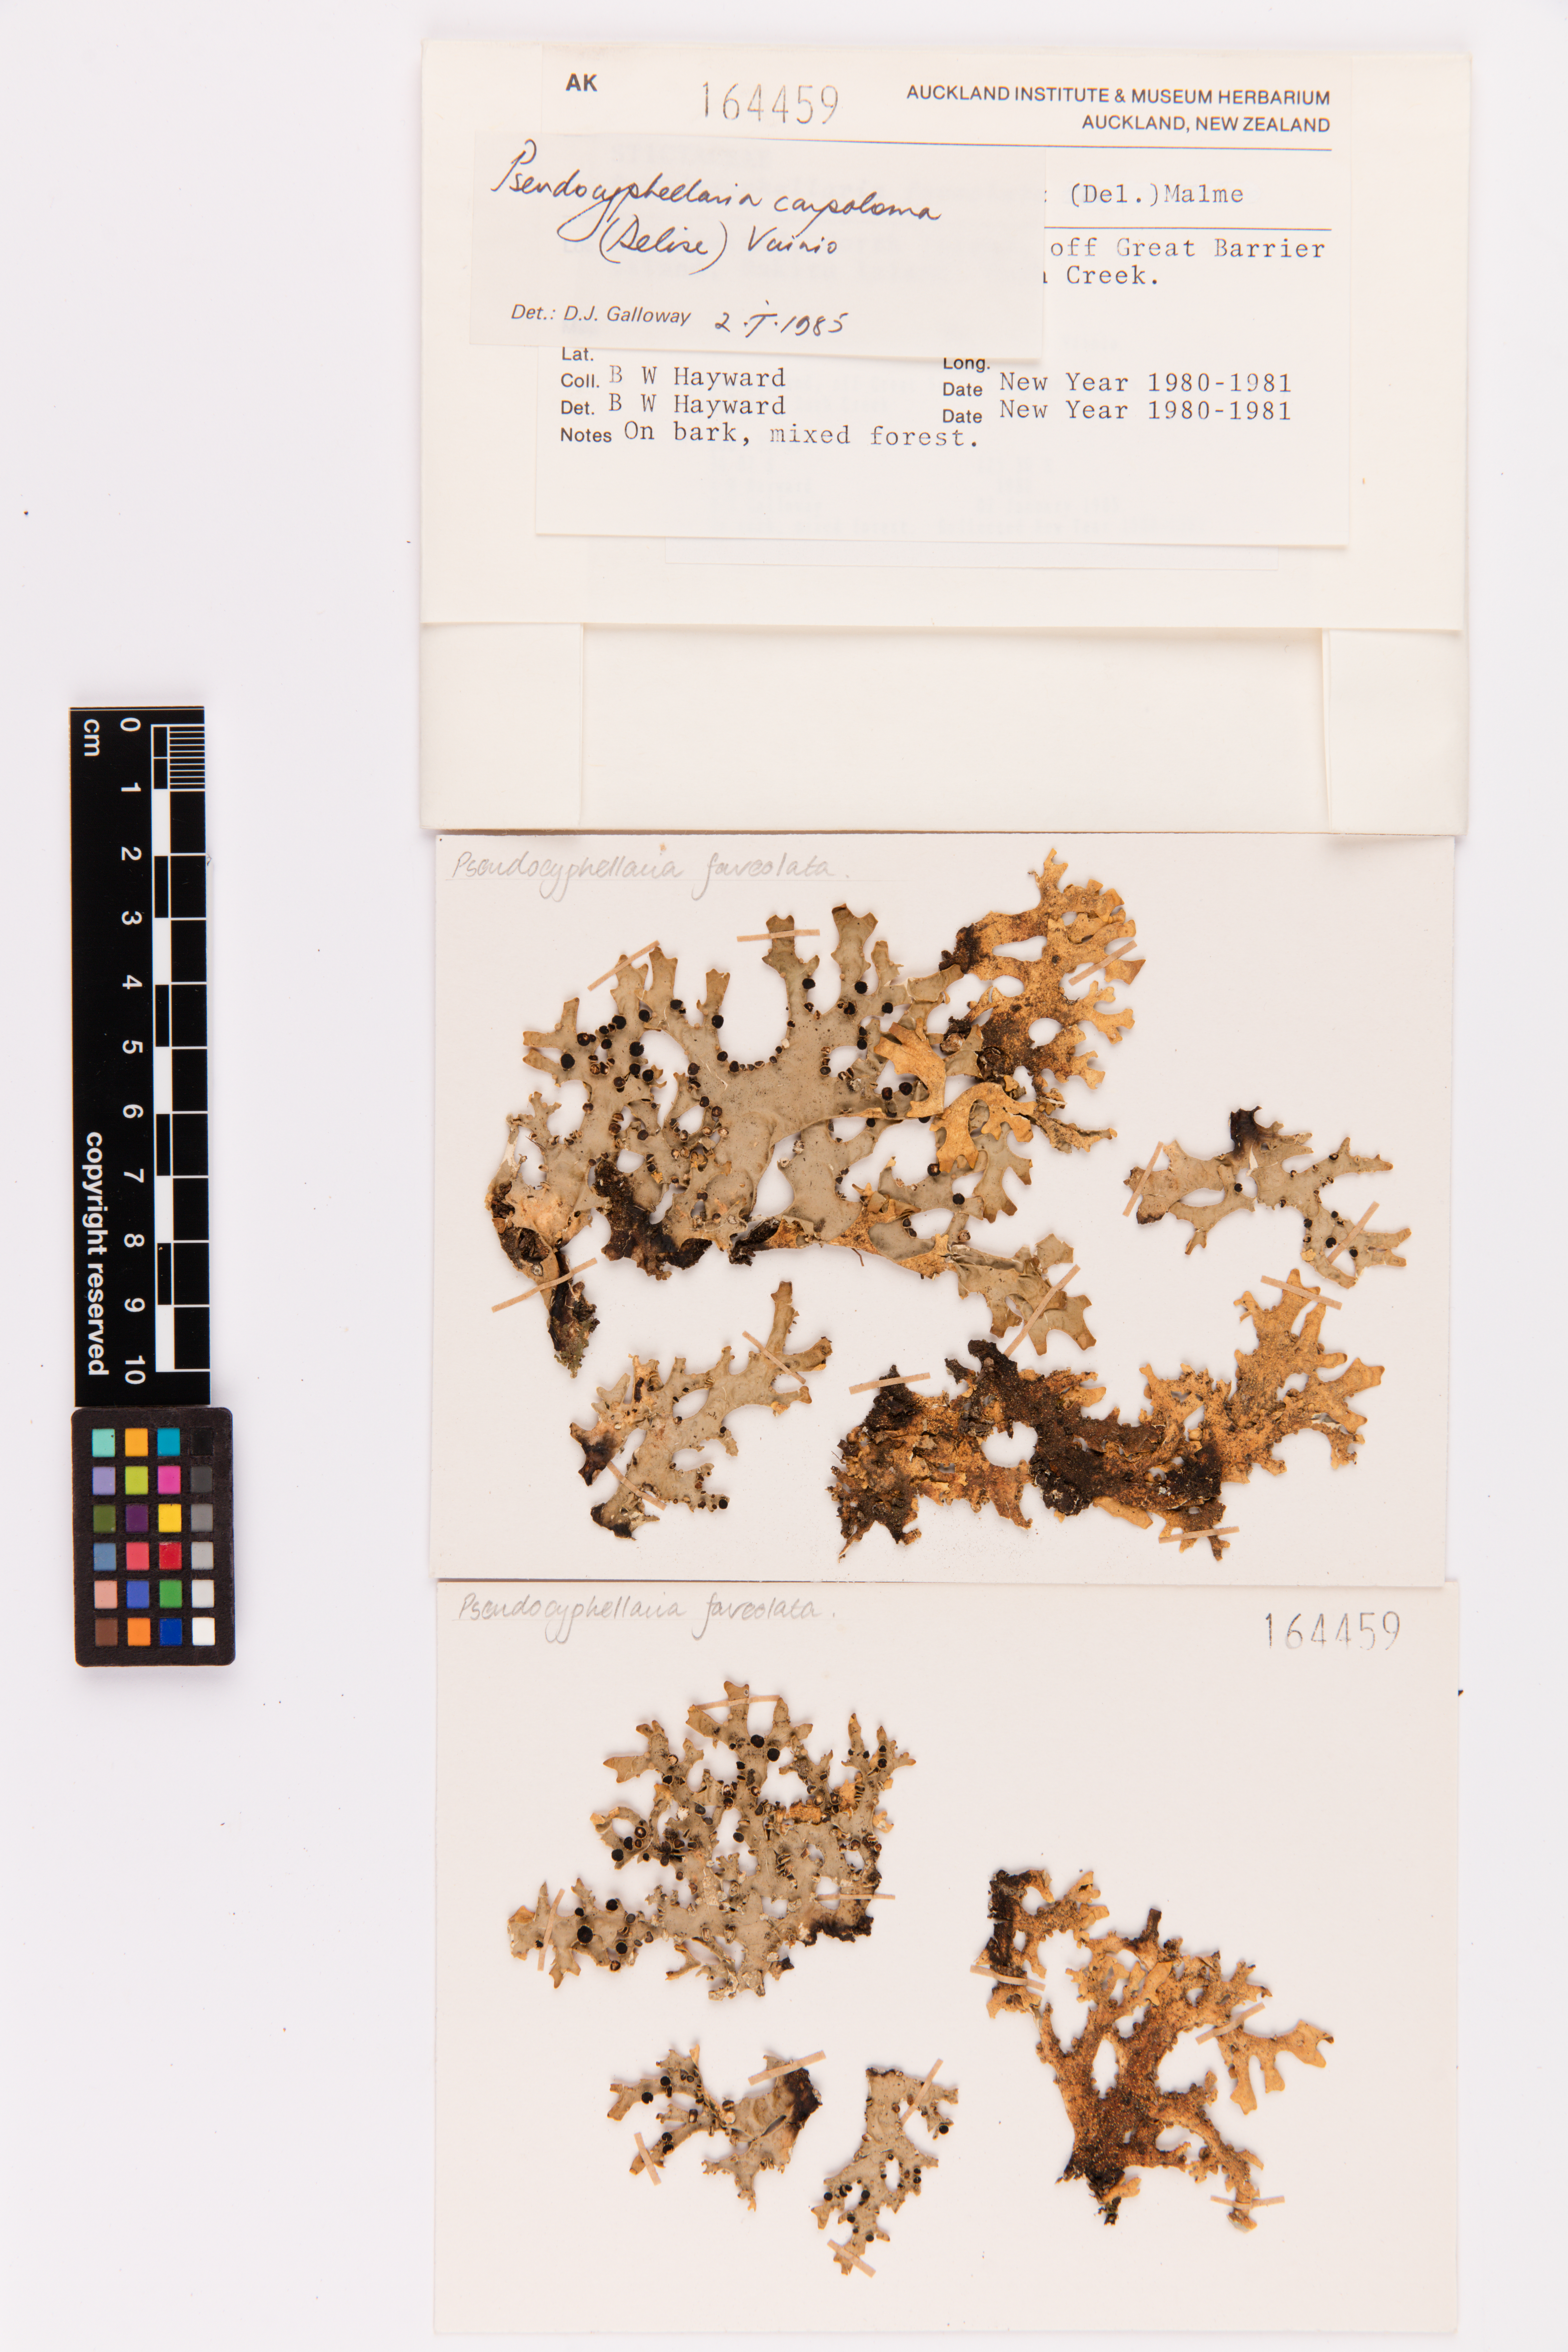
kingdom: Fungi
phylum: Ascomycota
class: Lecanoromycetes
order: Peltigerales
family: Lobariaceae
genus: Pseudocyphellaria
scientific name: Pseudocyphellaria carpoloma
